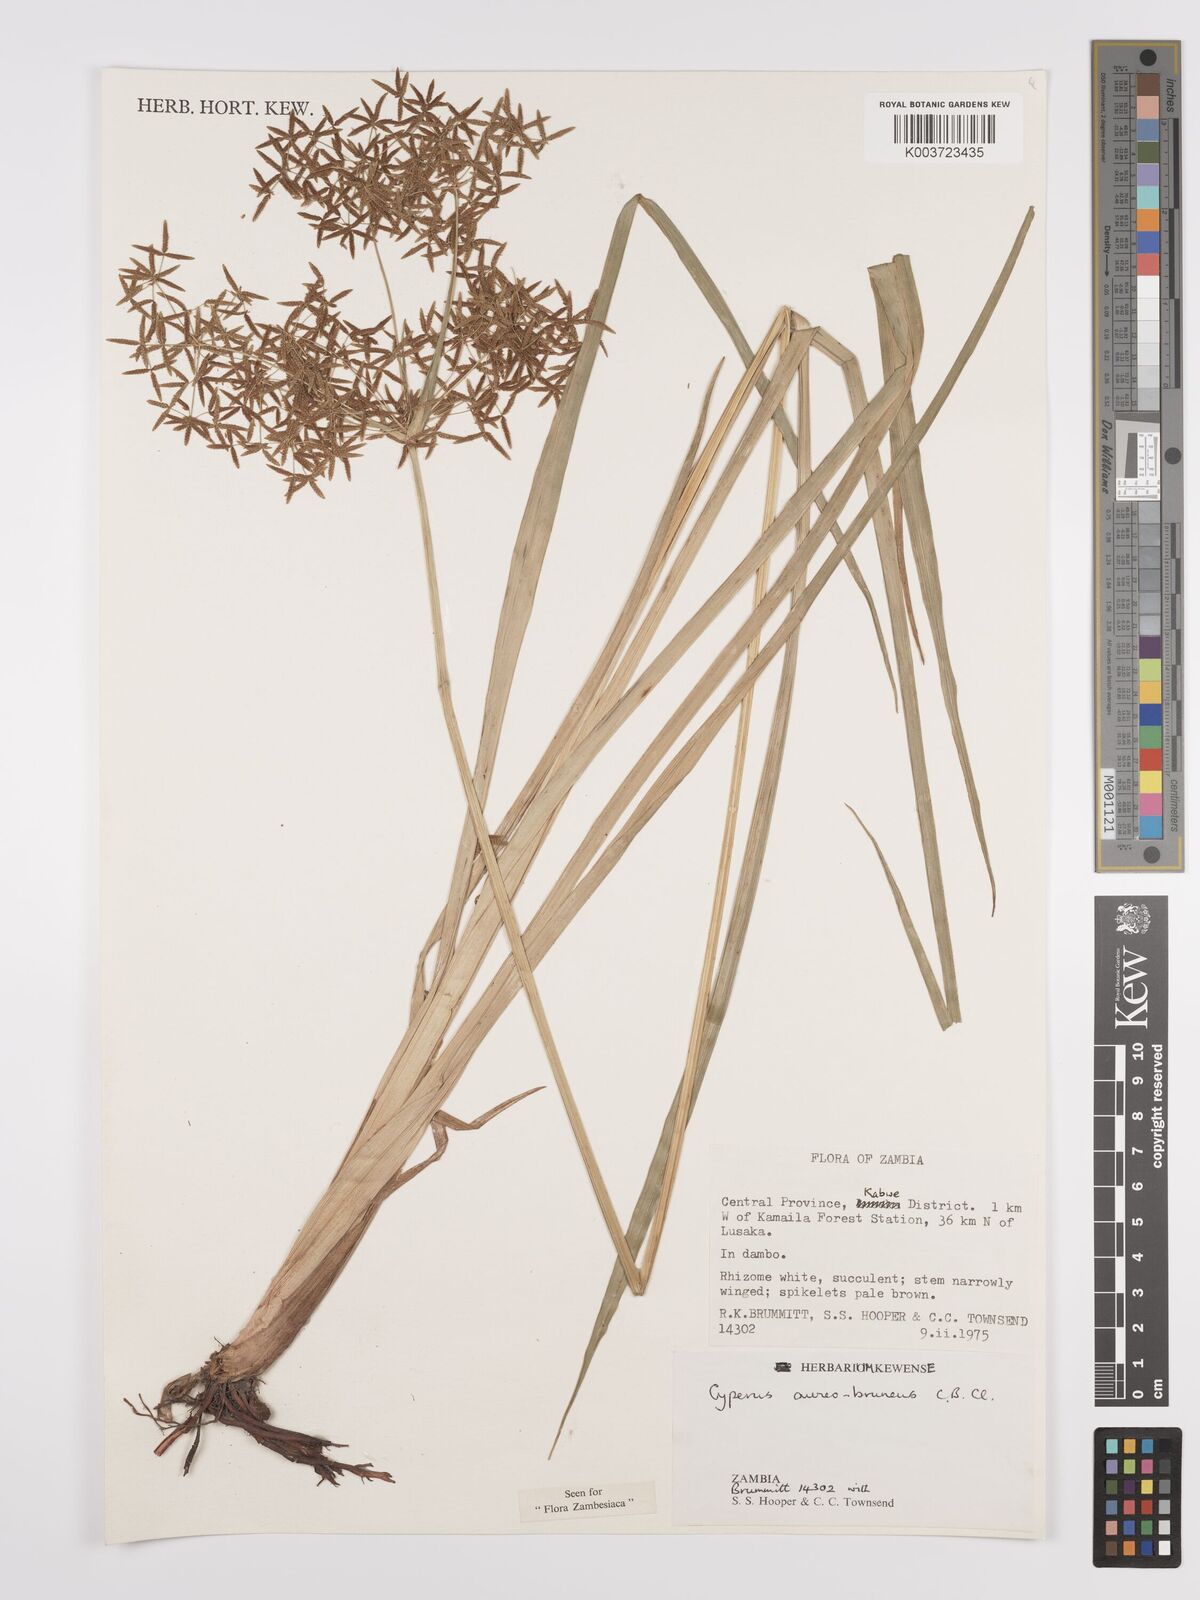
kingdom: Plantae
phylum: Tracheophyta
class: Liliopsida
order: Poales
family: Cyperaceae
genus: Cyperus
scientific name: Cyperus aureobrunneus
